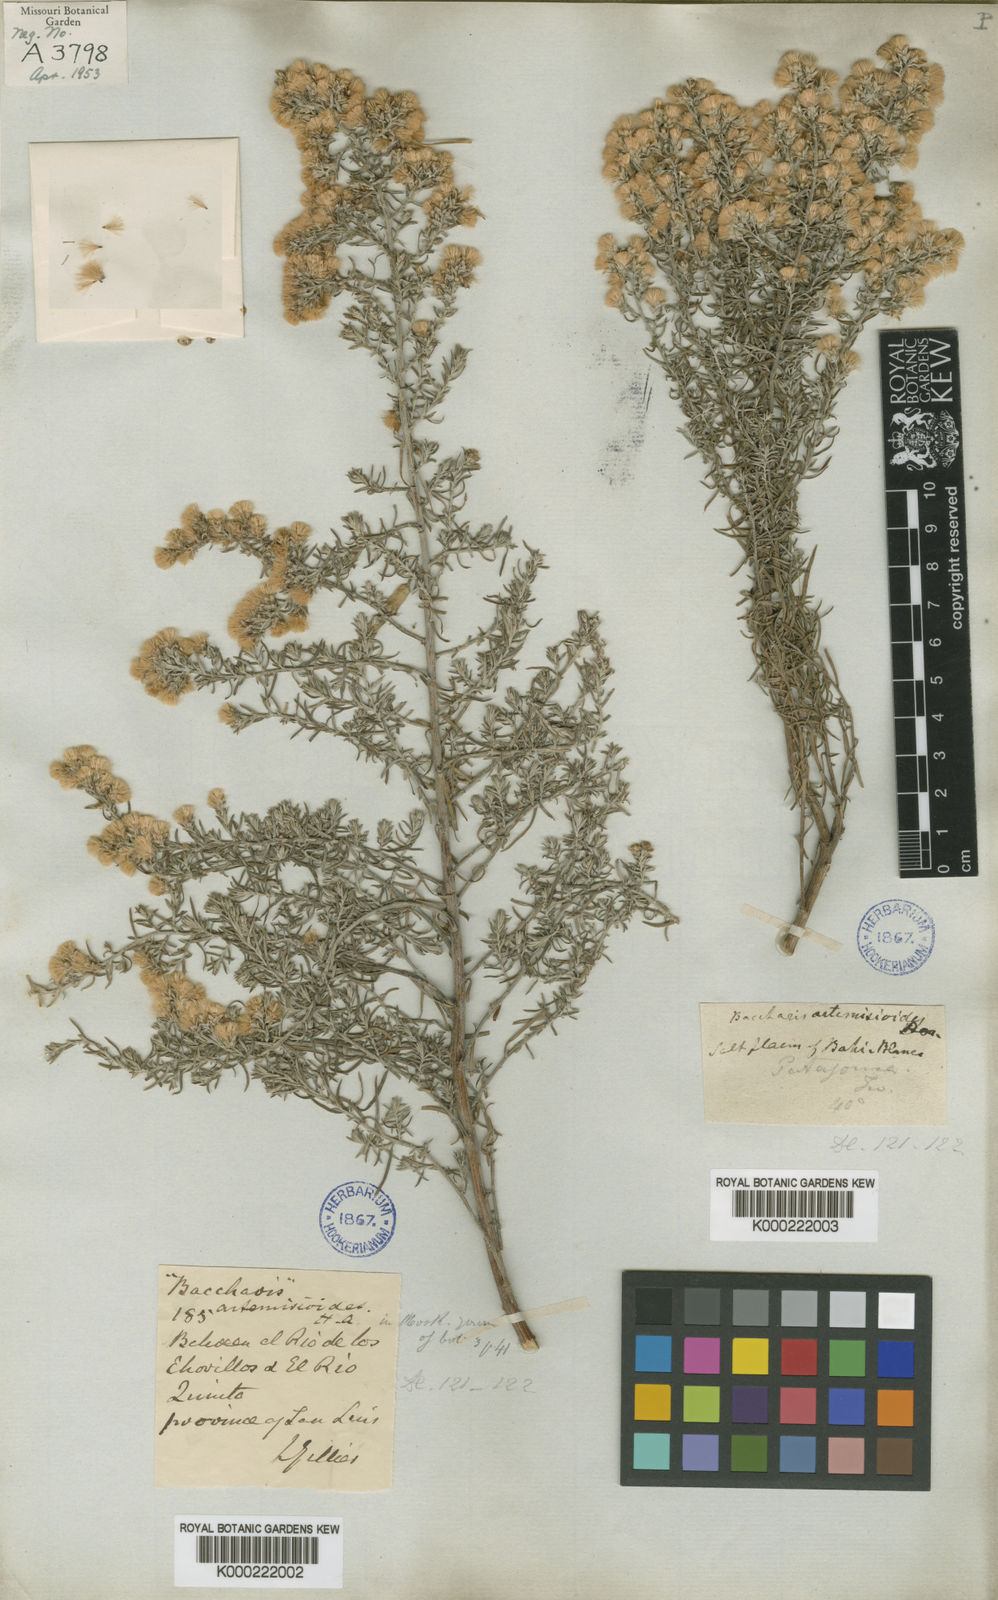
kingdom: Plantae
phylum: Tracheophyta
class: Magnoliopsida
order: Asterales
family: Asteraceae
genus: Baccharis
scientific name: Baccharis artemisioides
